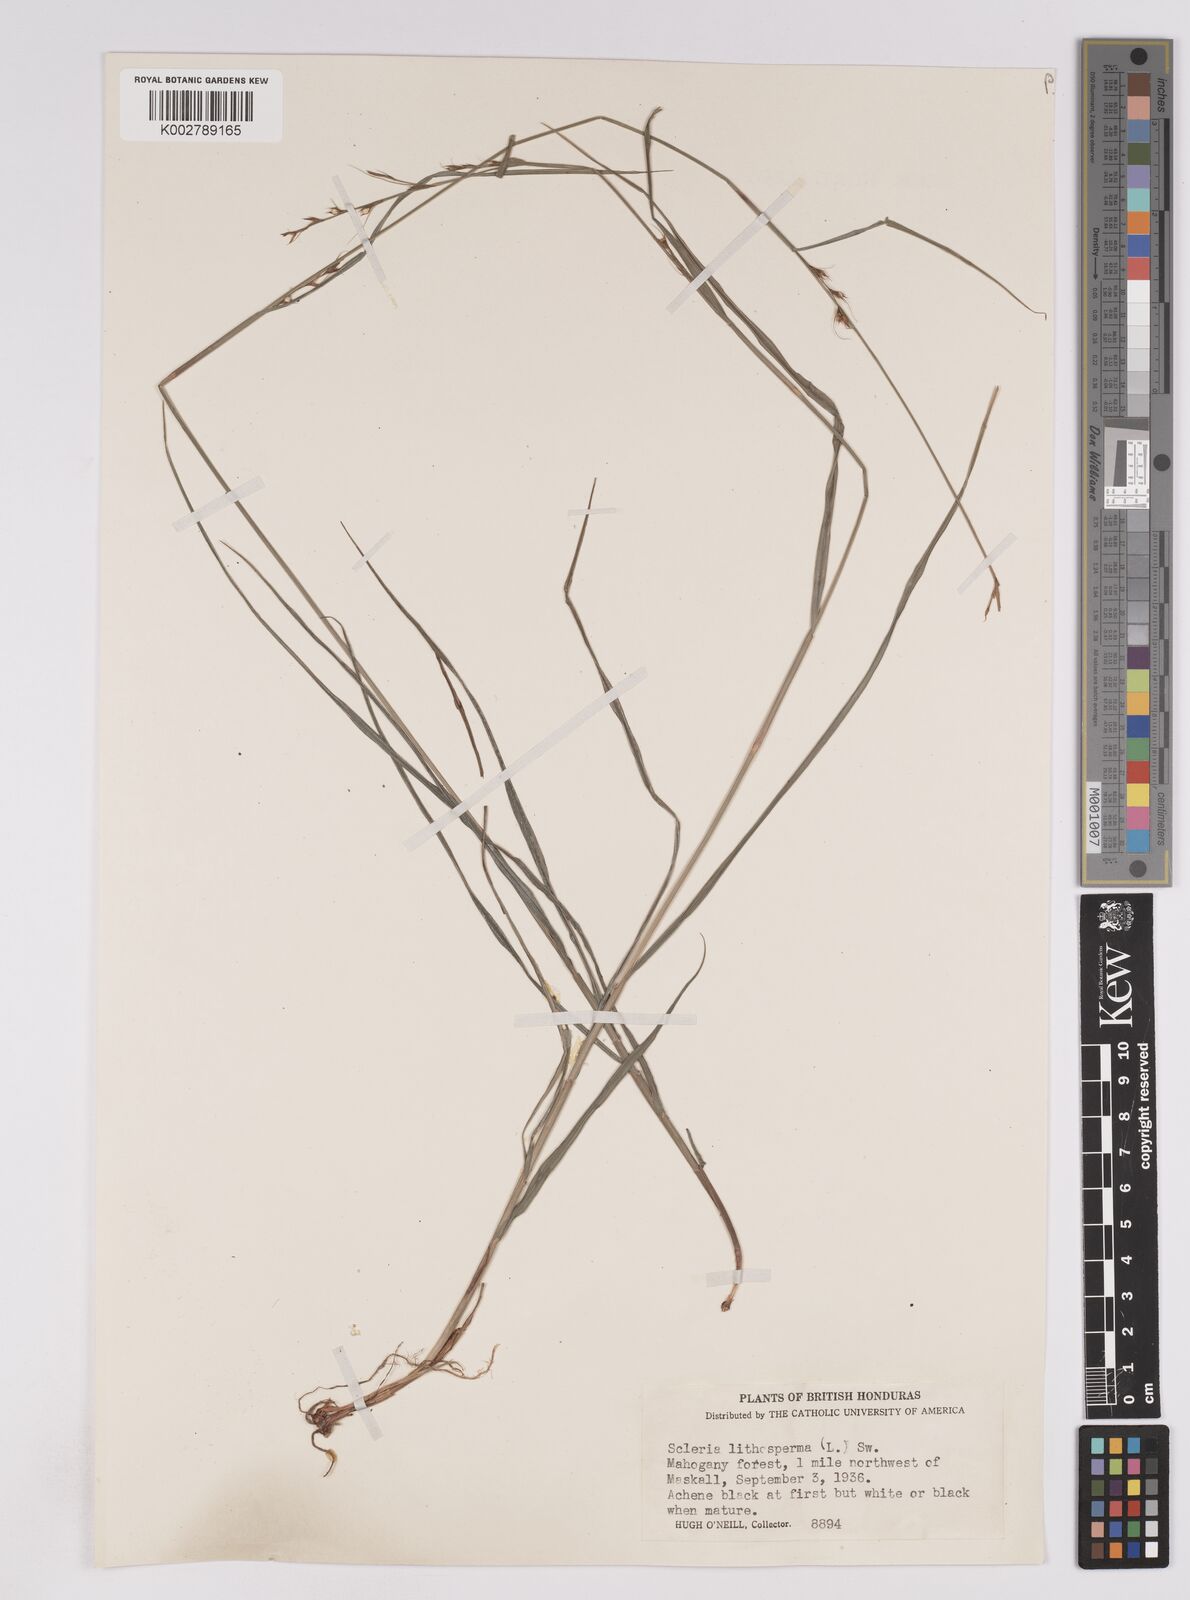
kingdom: Plantae
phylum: Tracheophyta
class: Liliopsida
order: Poales
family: Cyperaceae
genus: Scleria
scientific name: Scleria lithosperma
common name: Florida keys nut-rush
